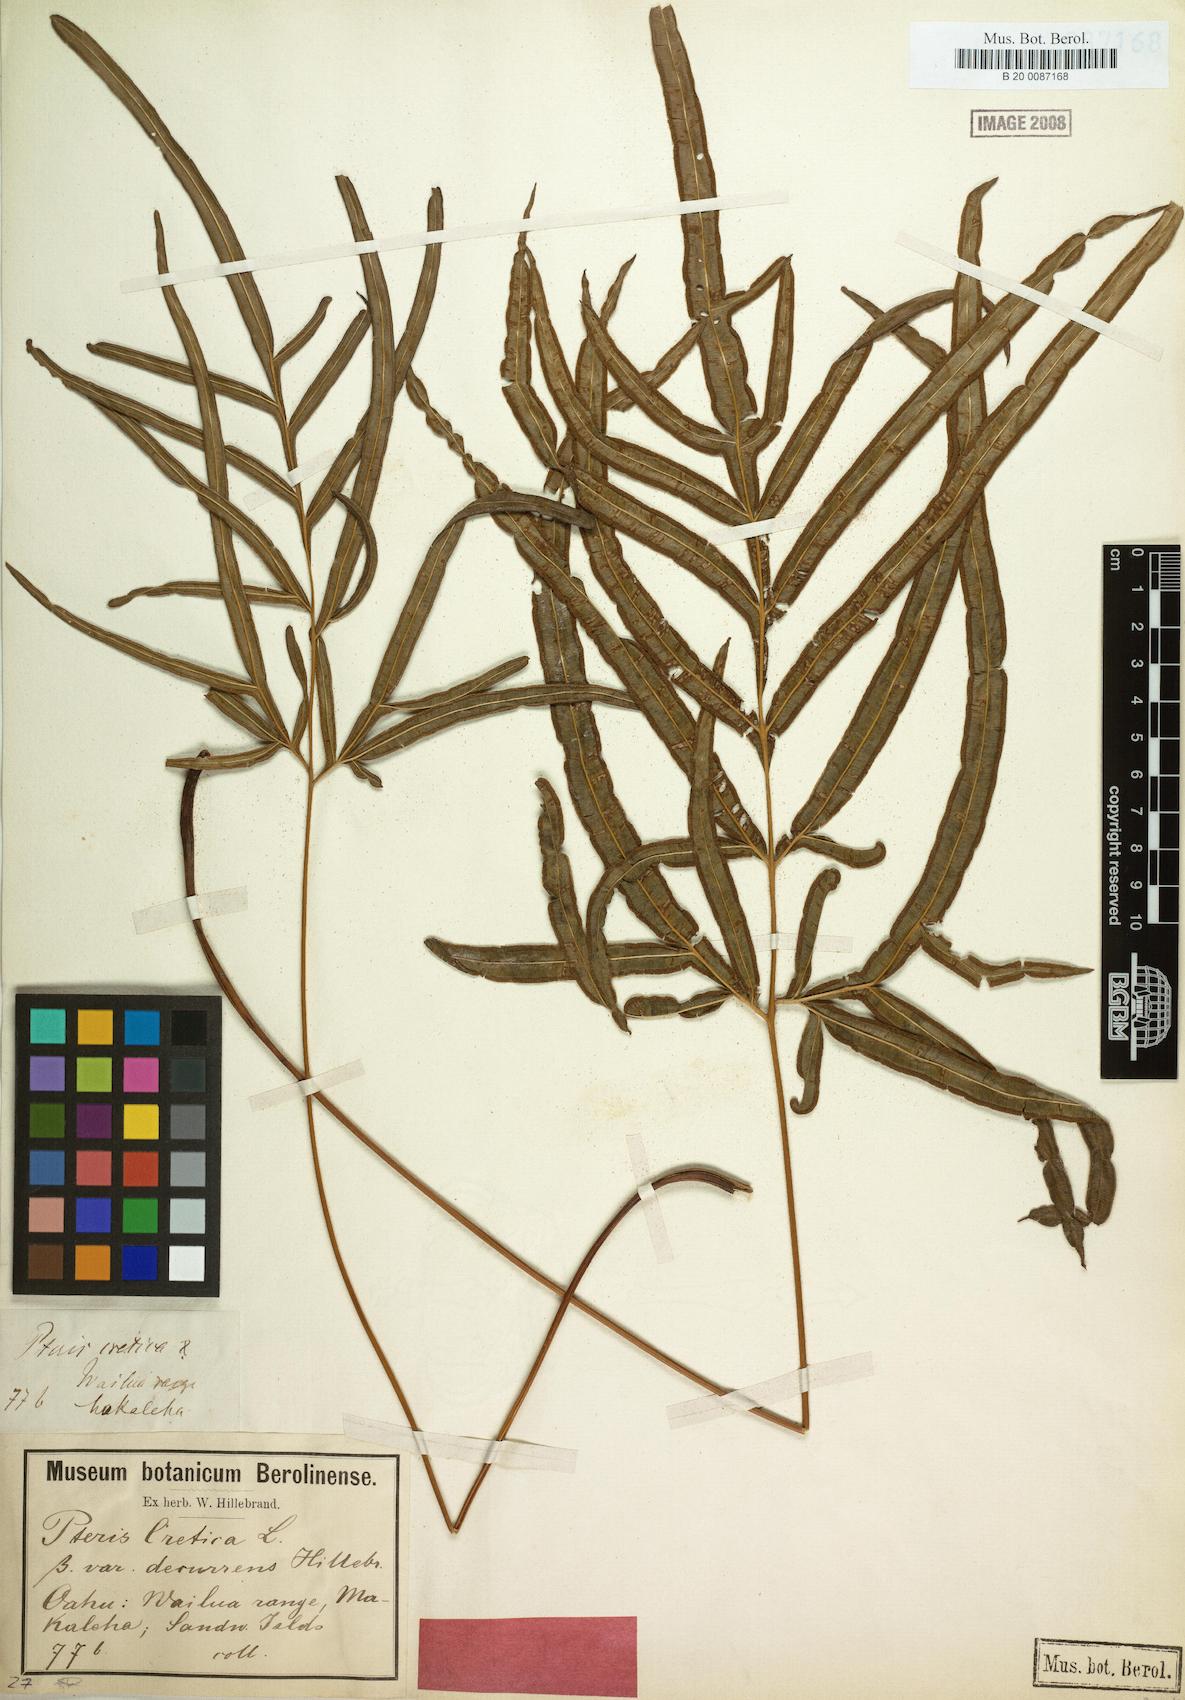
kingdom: Plantae
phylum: Tracheophyta
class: Polypodiopsida
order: Polypodiales
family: Pteridaceae
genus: Pteris
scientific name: Pteris cretica
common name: Ribbon fern
